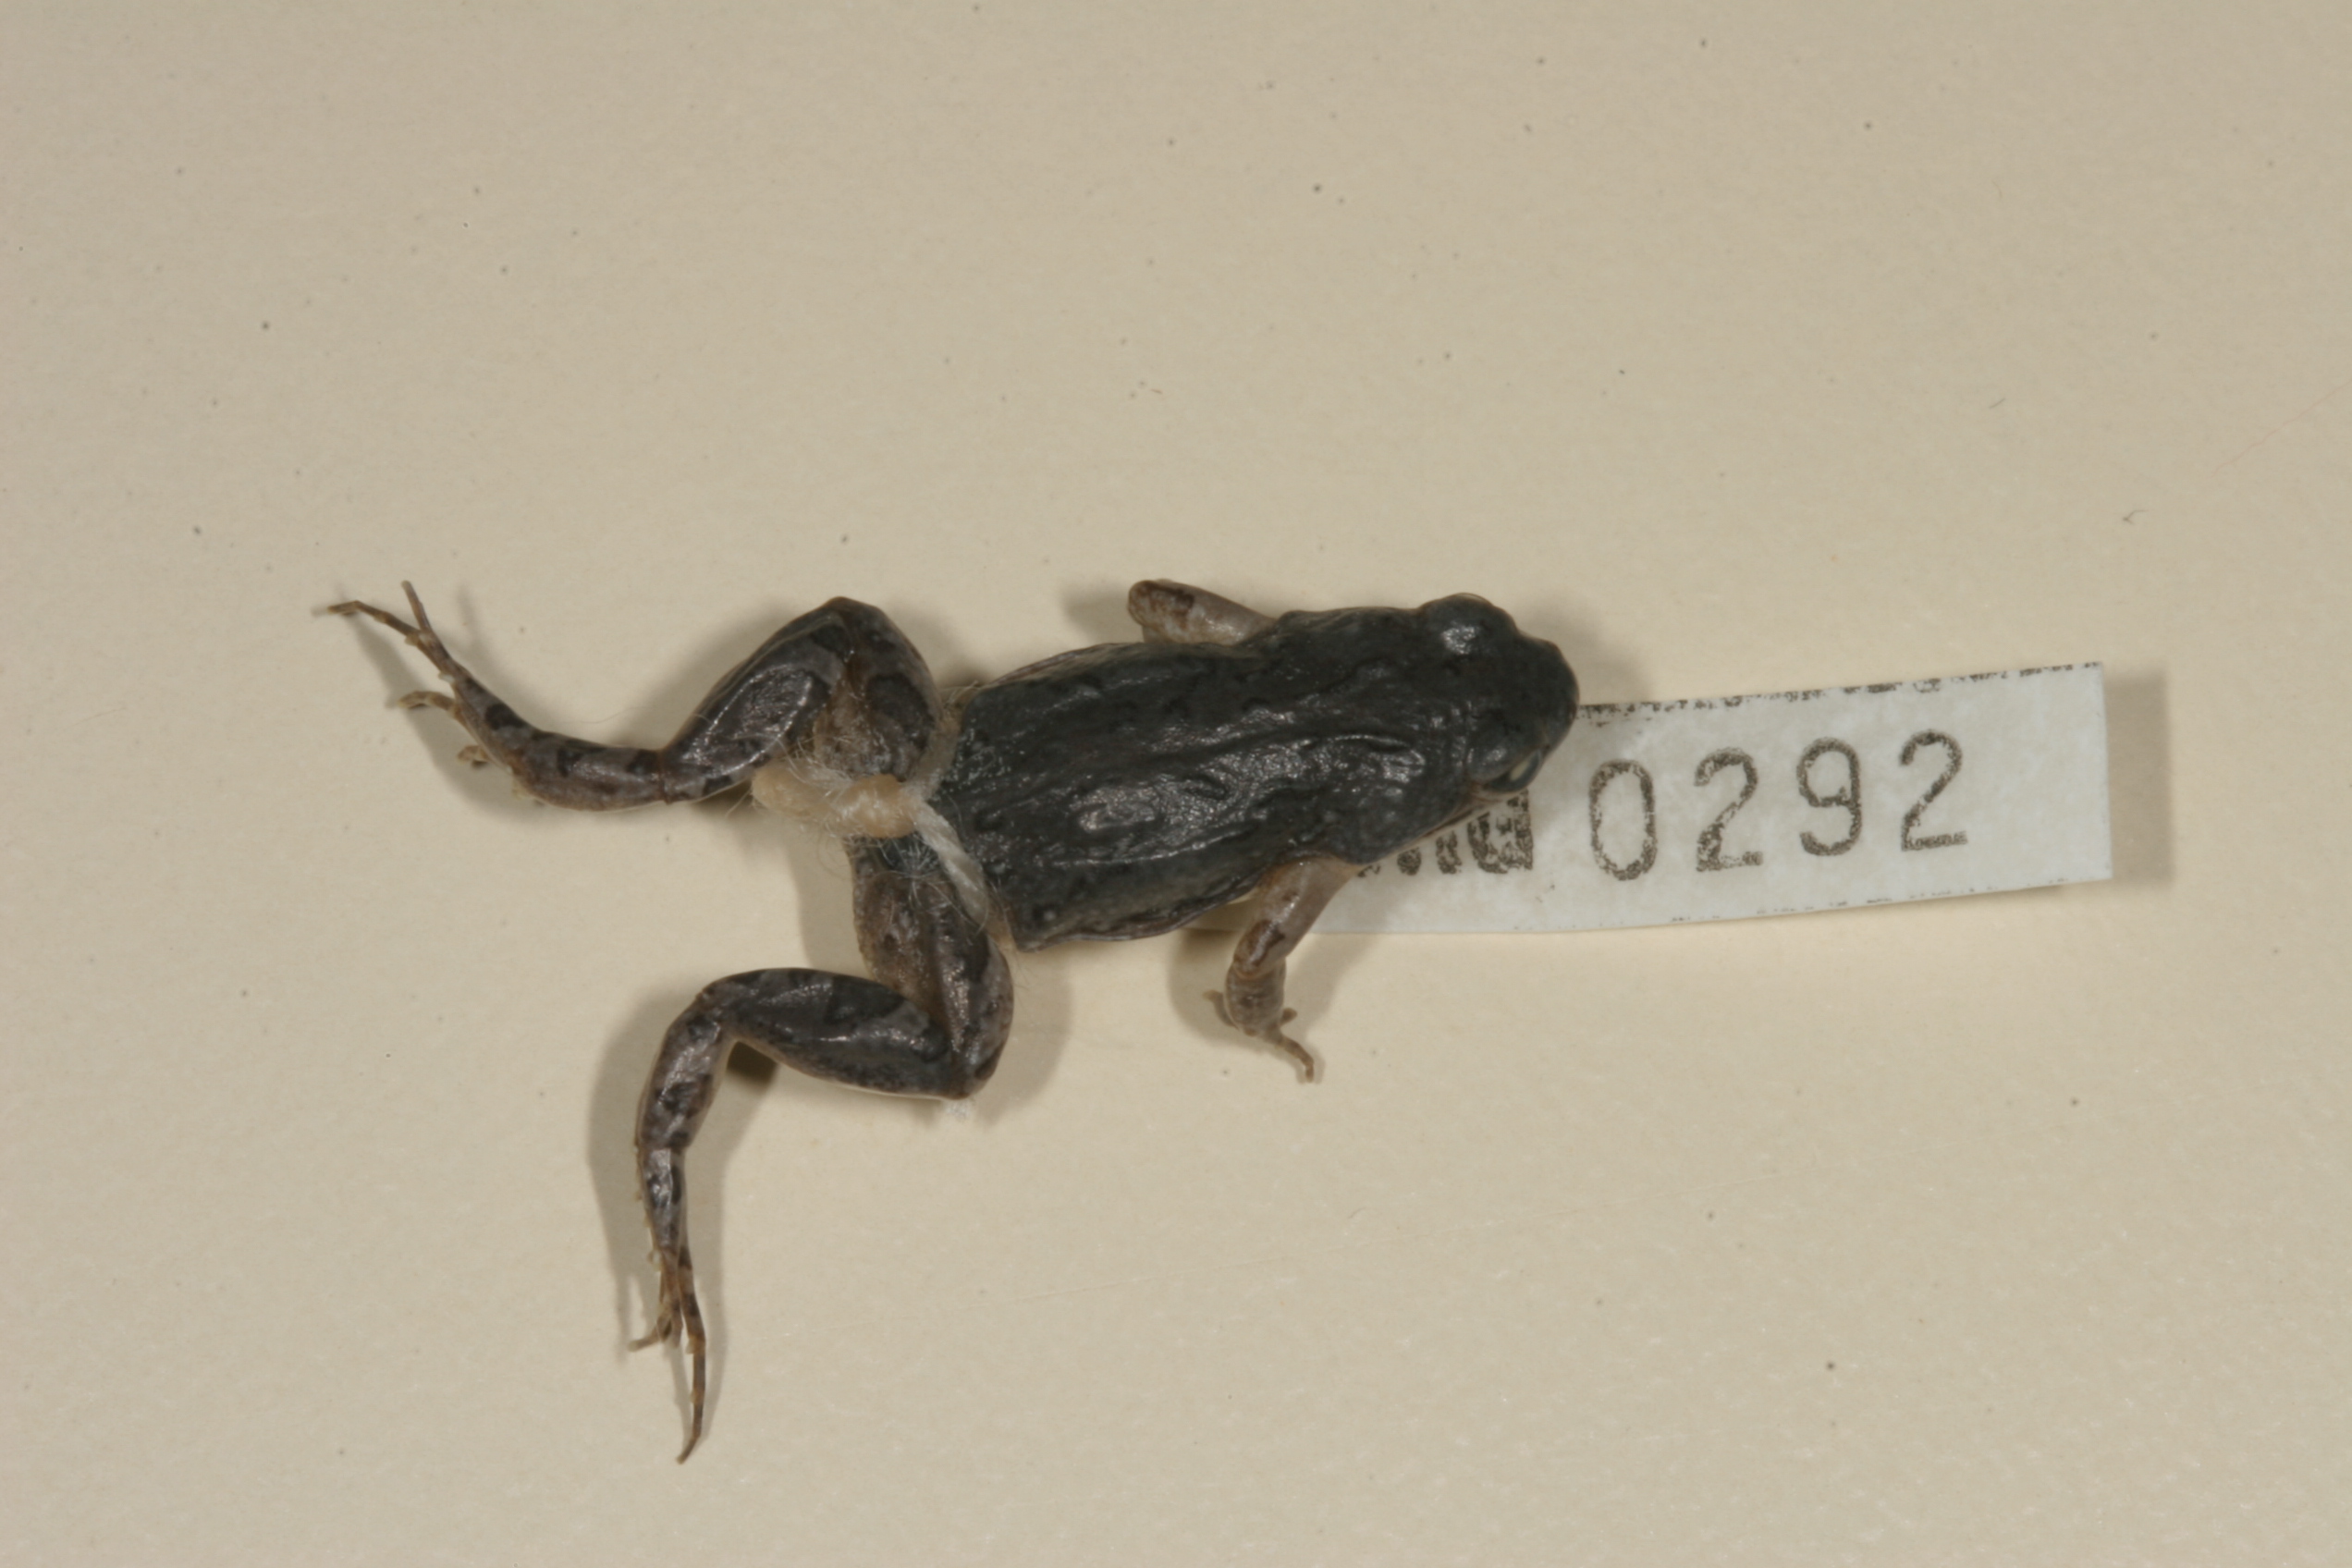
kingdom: Animalia
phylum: Chordata
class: Amphibia
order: Anura
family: Pyxicephalidae
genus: Cacosternum
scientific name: Cacosternum boettgeri
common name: Boettger's frog
